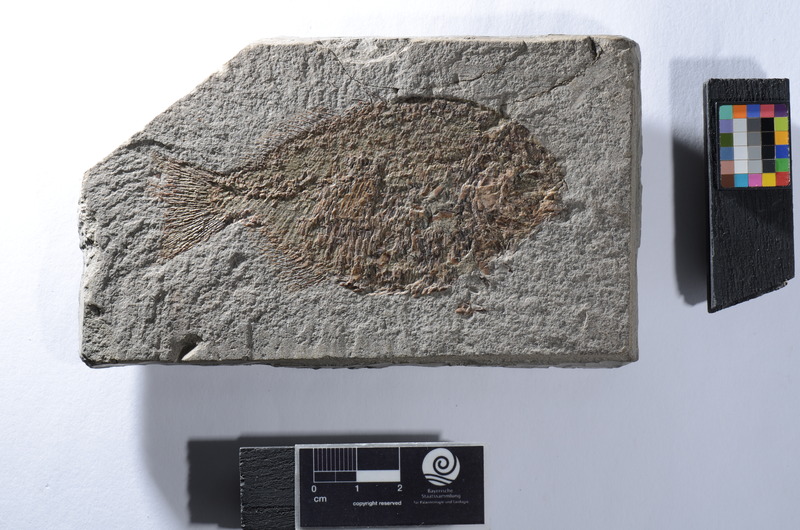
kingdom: Animalia
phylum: Chordata
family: Dapediidae
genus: Tetragonolepis
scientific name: Tetragonolepis
